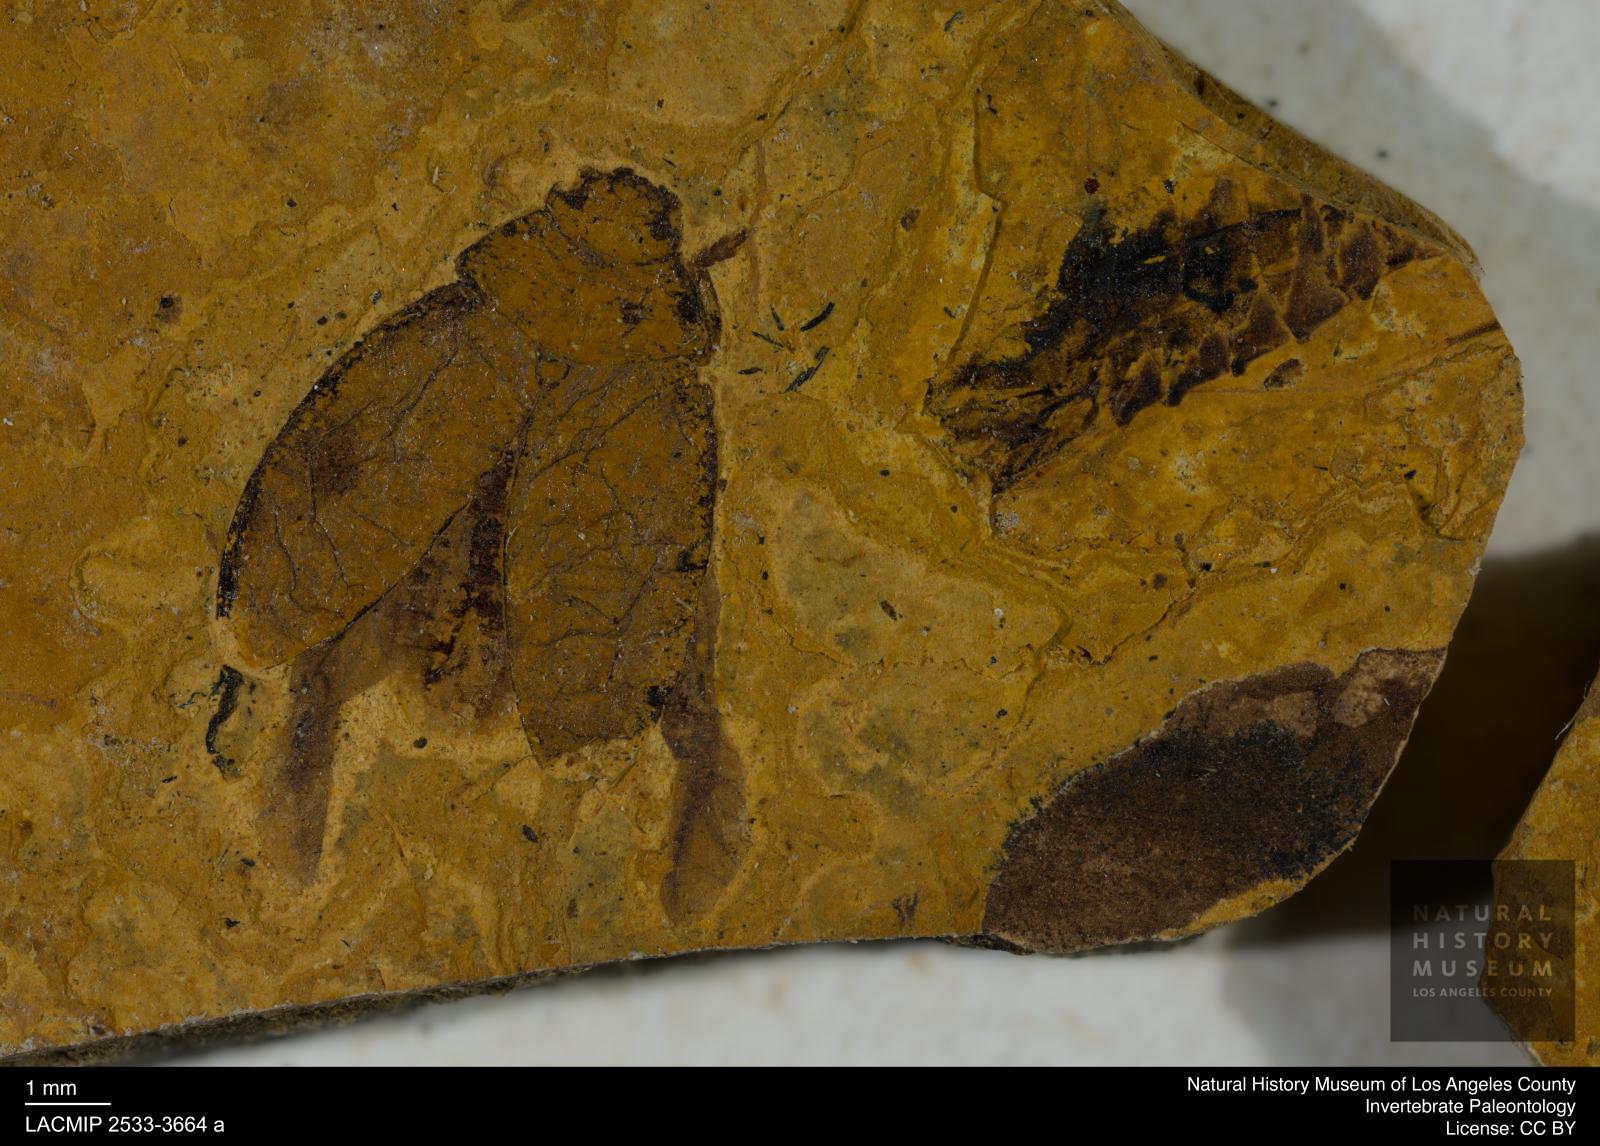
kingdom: Animalia
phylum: Arthropoda
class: Insecta
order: Hemiptera
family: Notonectidae
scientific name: Notonectidae
